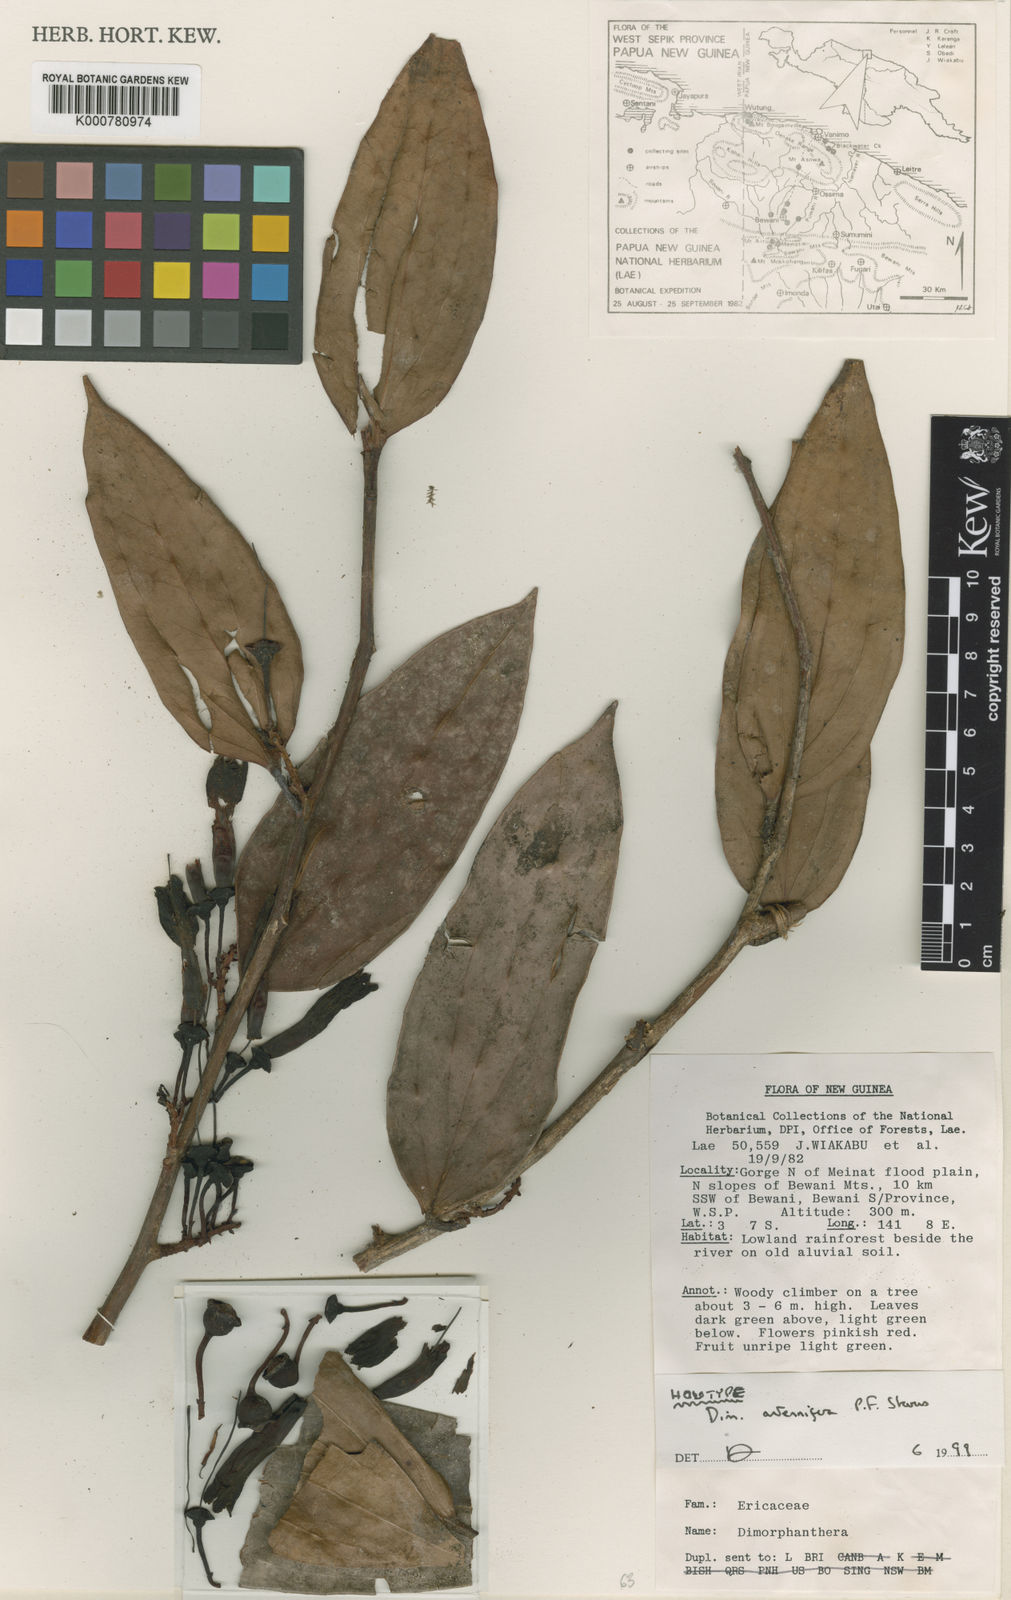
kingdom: Plantae
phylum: Tracheophyta
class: Magnoliopsida
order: Ericales
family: Ericaceae
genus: Dimorphanthera
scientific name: Dimorphanthera antennifera
